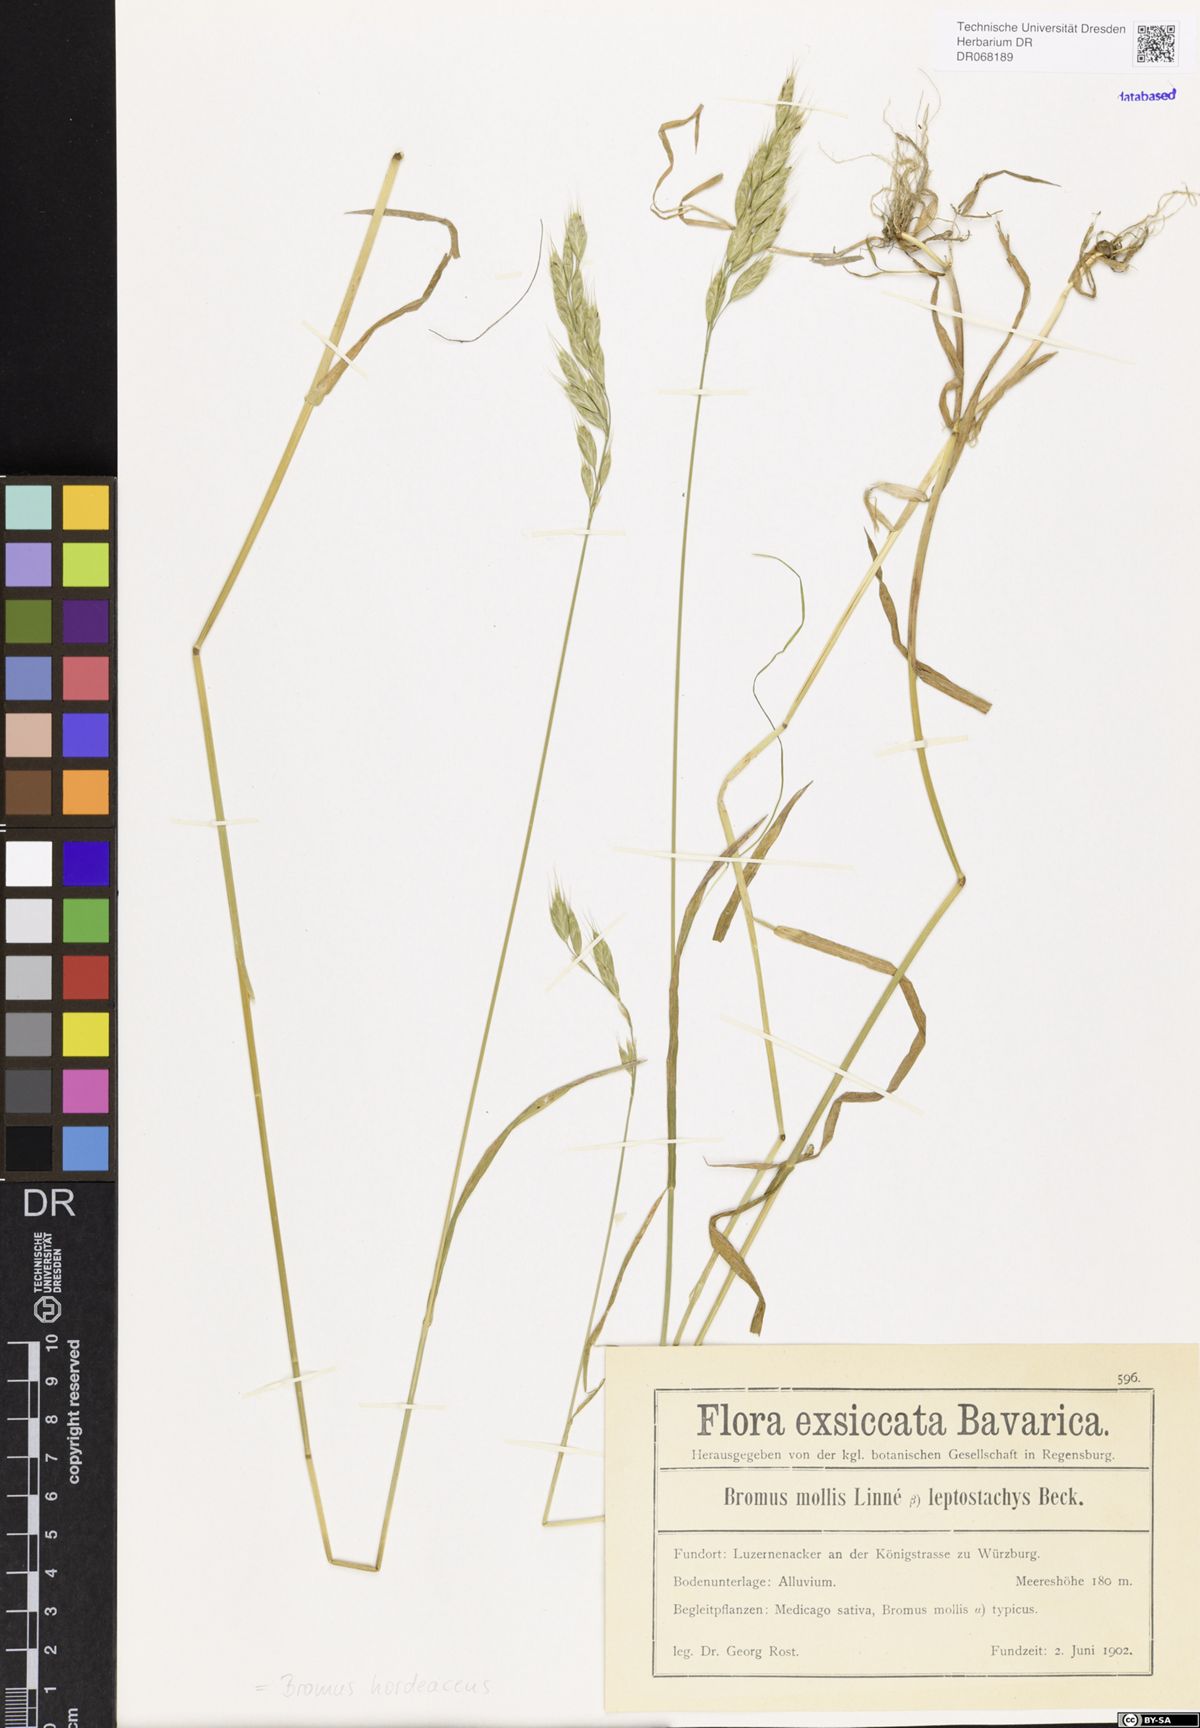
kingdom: Plantae
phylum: Tracheophyta
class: Liliopsida
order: Poales
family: Poaceae
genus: Bromus
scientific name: Bromus hordeaceus
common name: Soft brome
